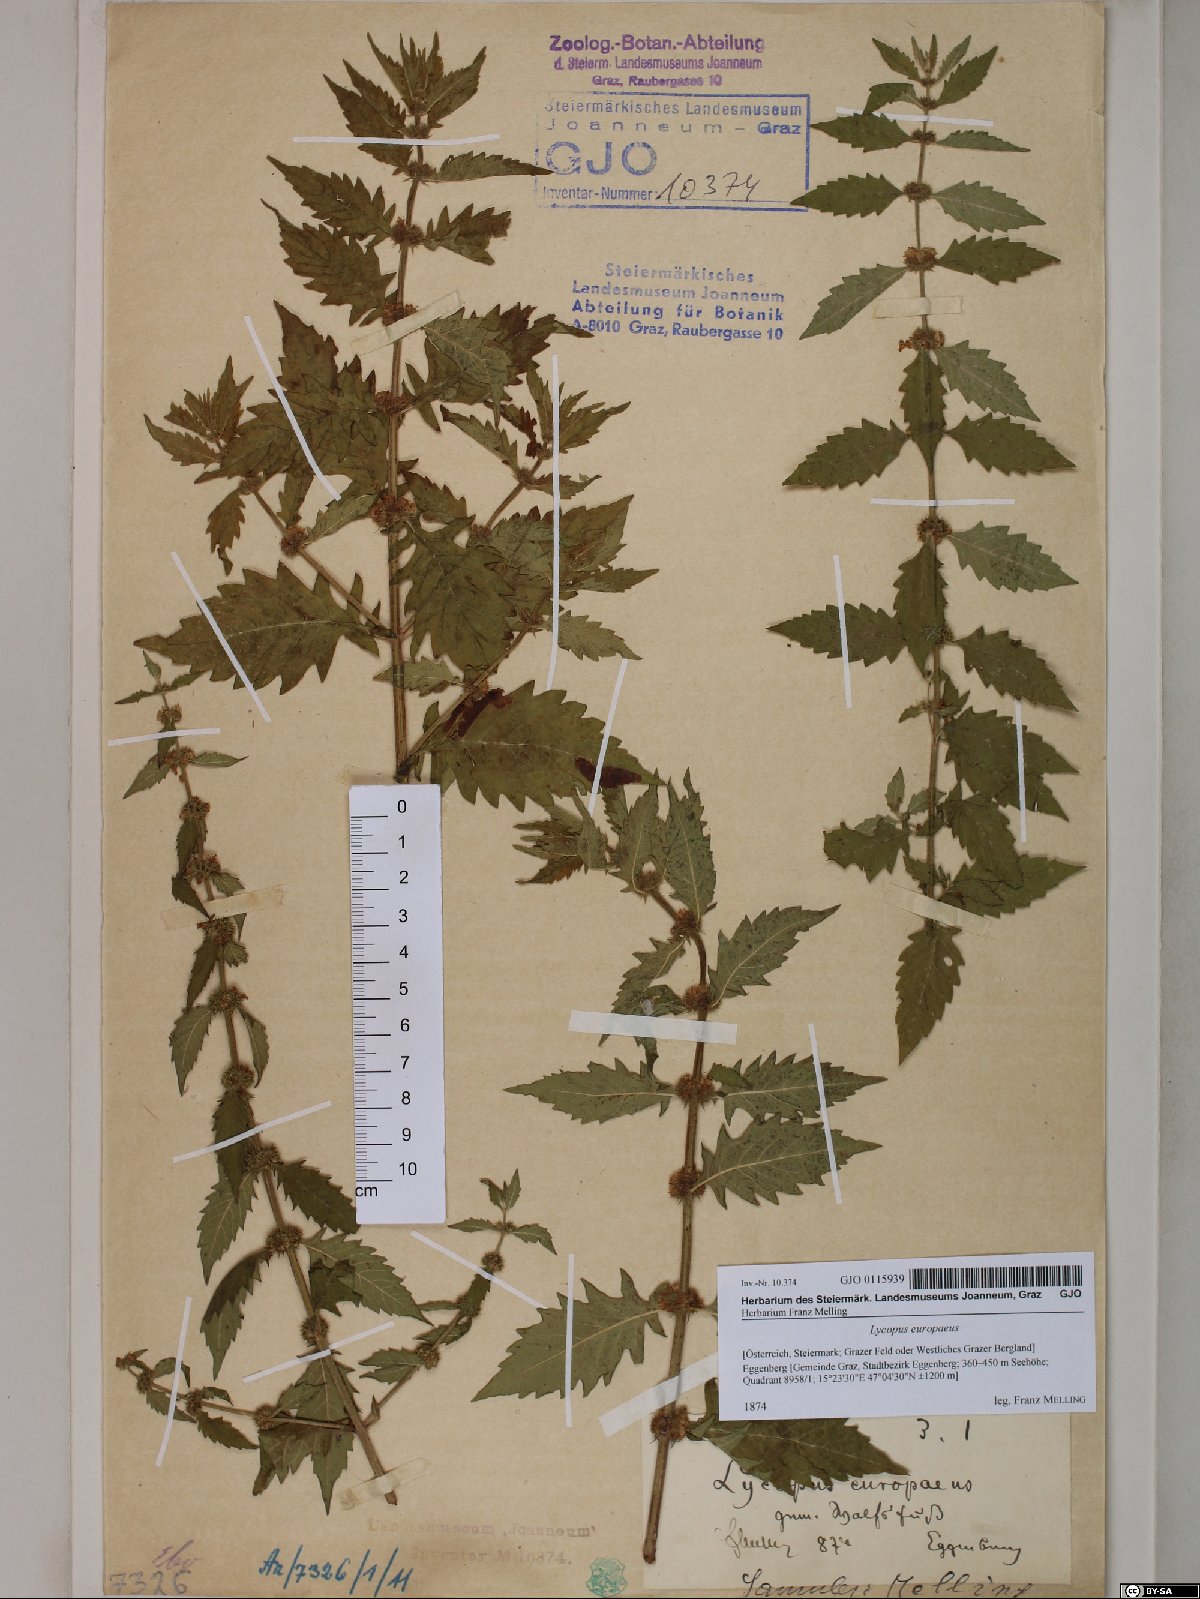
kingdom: Plantae
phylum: Tracheophyta
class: Magnoliopsida
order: Lamiales
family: Lamiaceae
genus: Lycopus
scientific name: Lycopus europaeus
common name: European bugleweed
